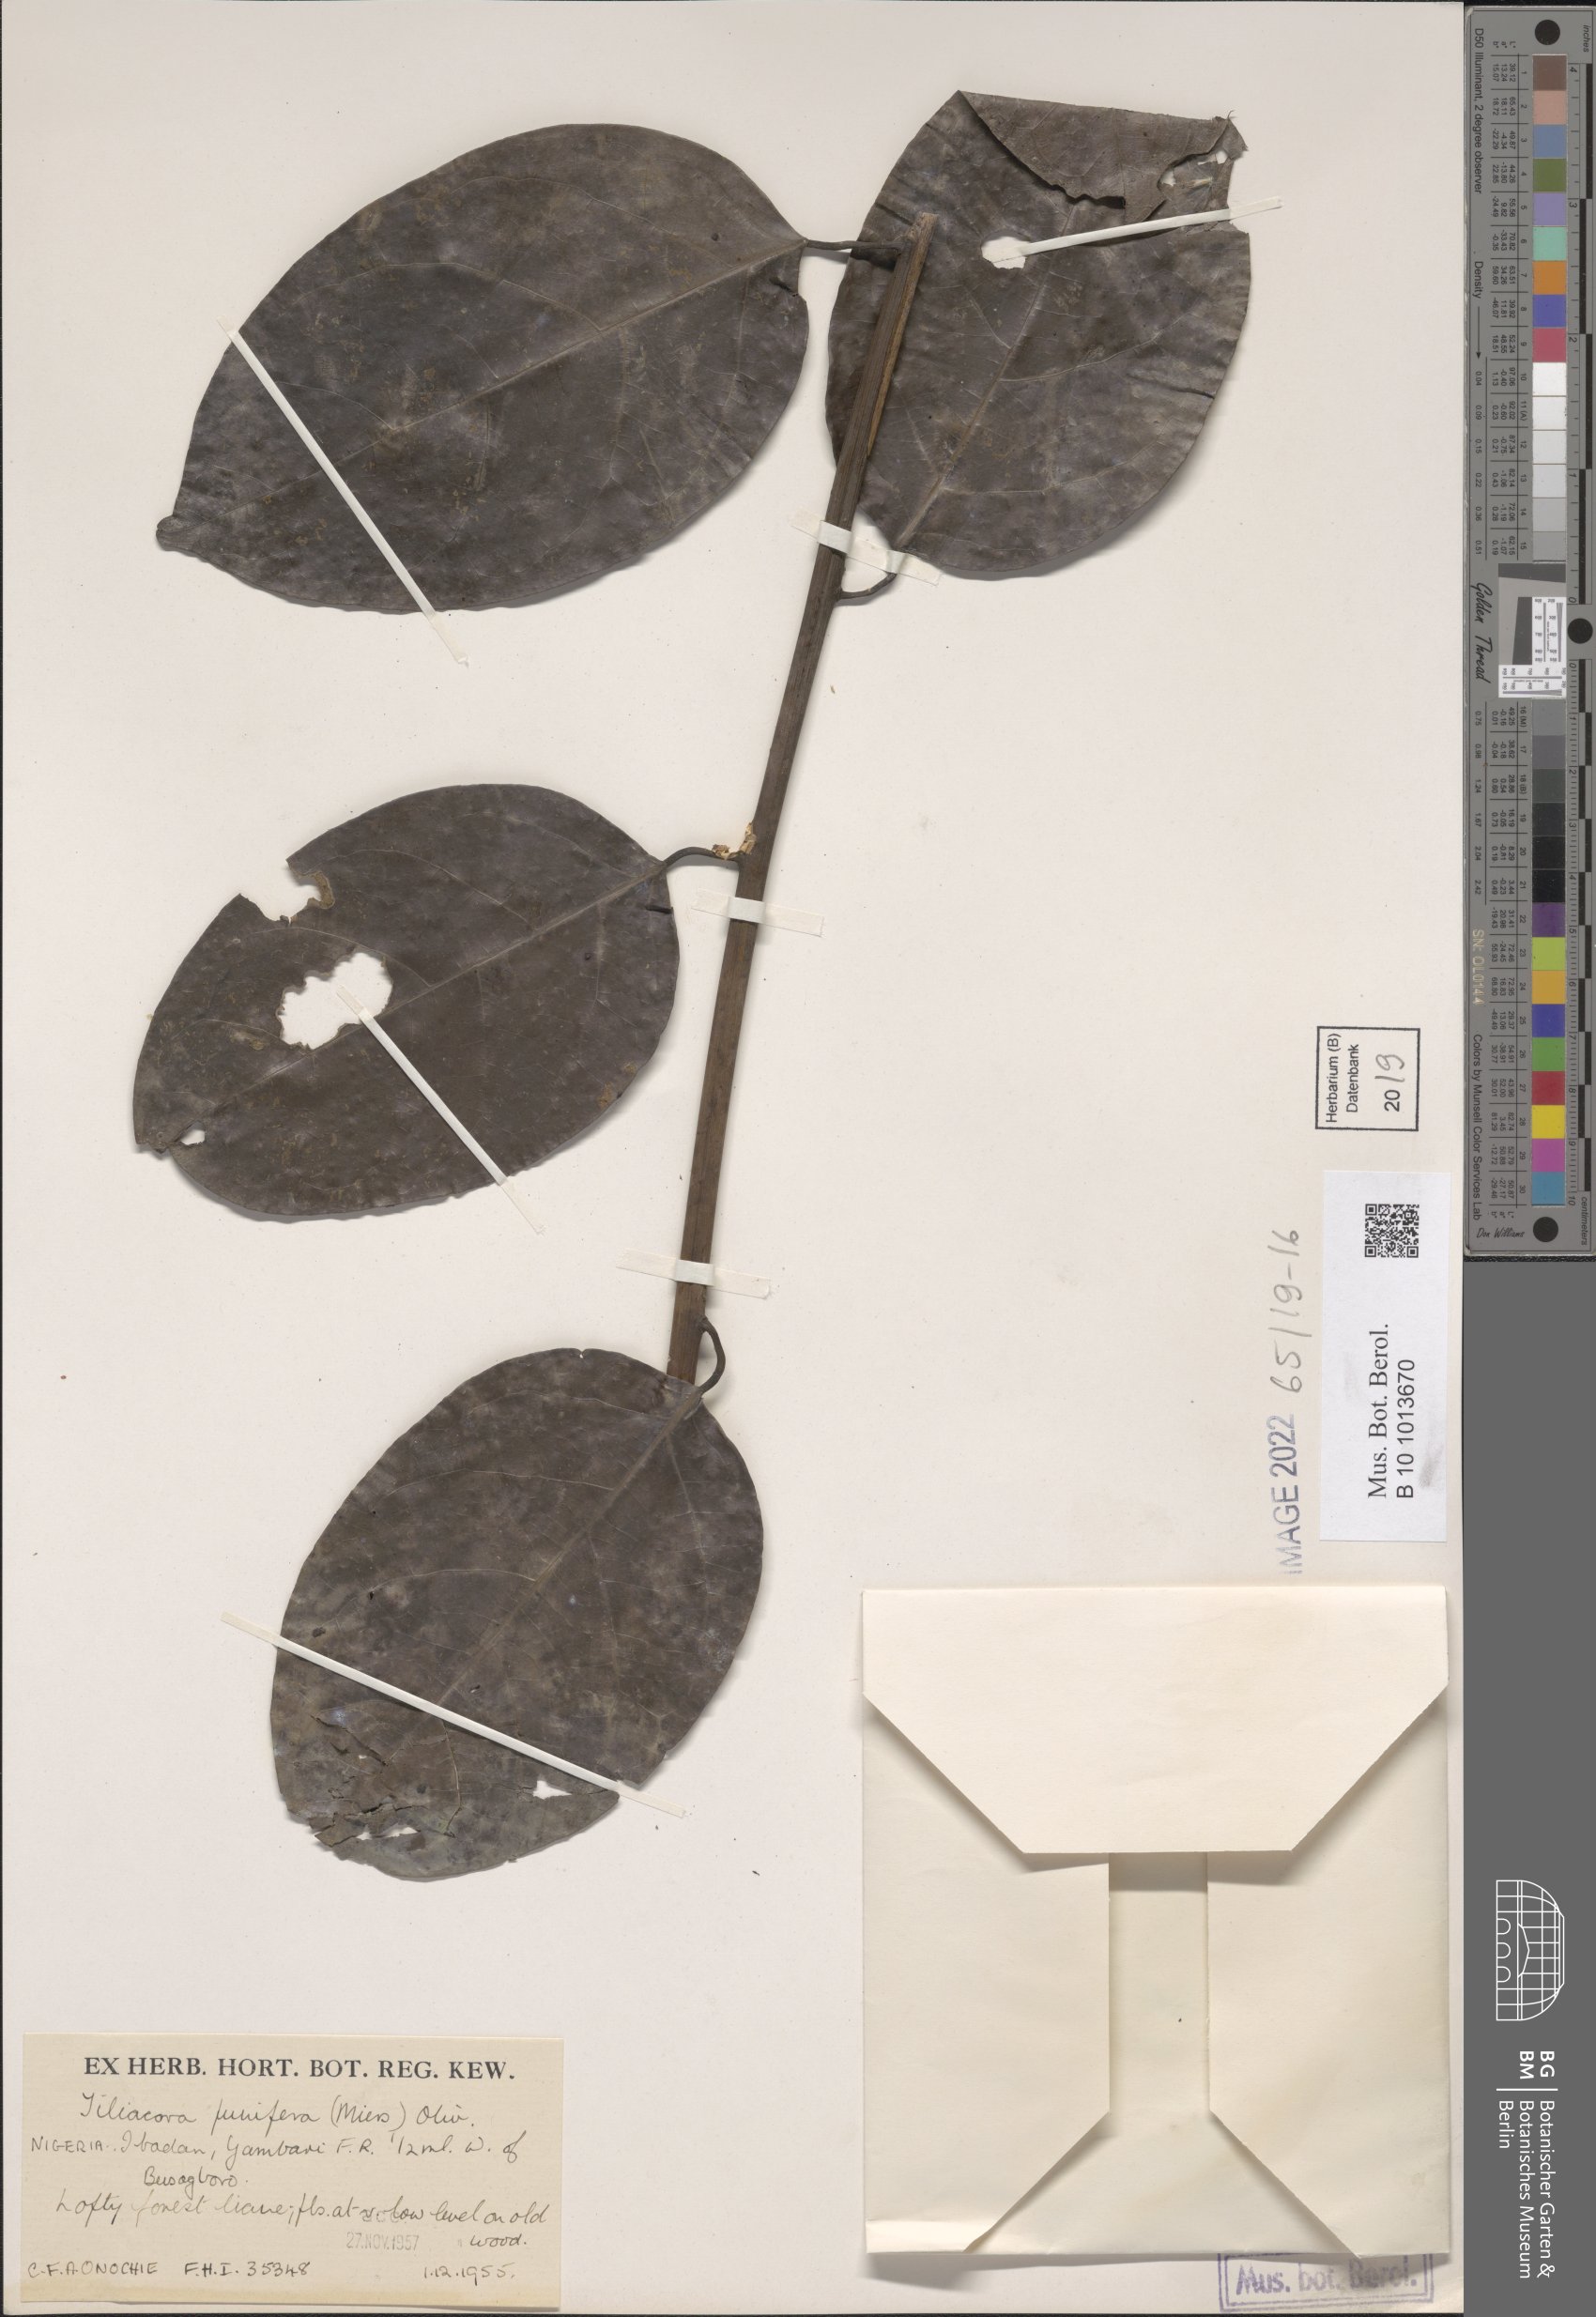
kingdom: Plantae
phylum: Tracheophyta
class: Magnoliopsida
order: Ranunculales
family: Menispermaceae
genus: Tiliacora
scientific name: Tiliacora funifera
